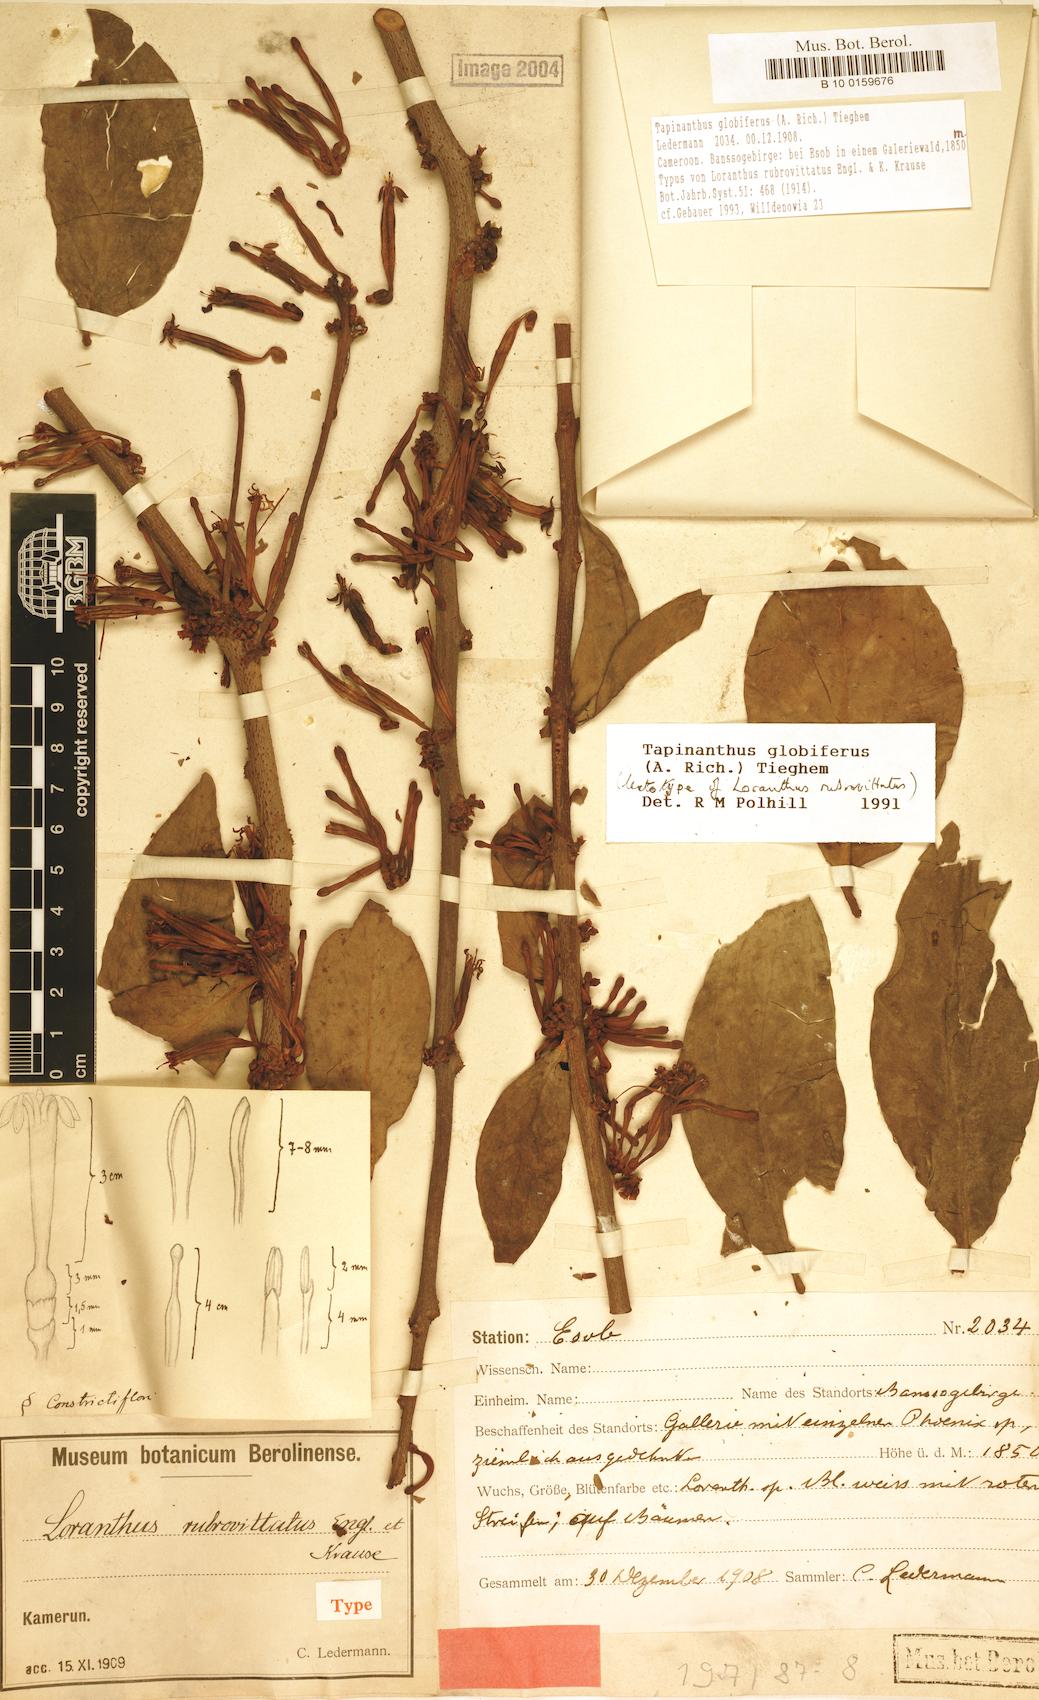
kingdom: Plantae
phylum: Tracheophyta
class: Magnoliopsida
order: Santalales
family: Loranthaceae
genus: Tapinanthus
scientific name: Tapinanthus globiferus
